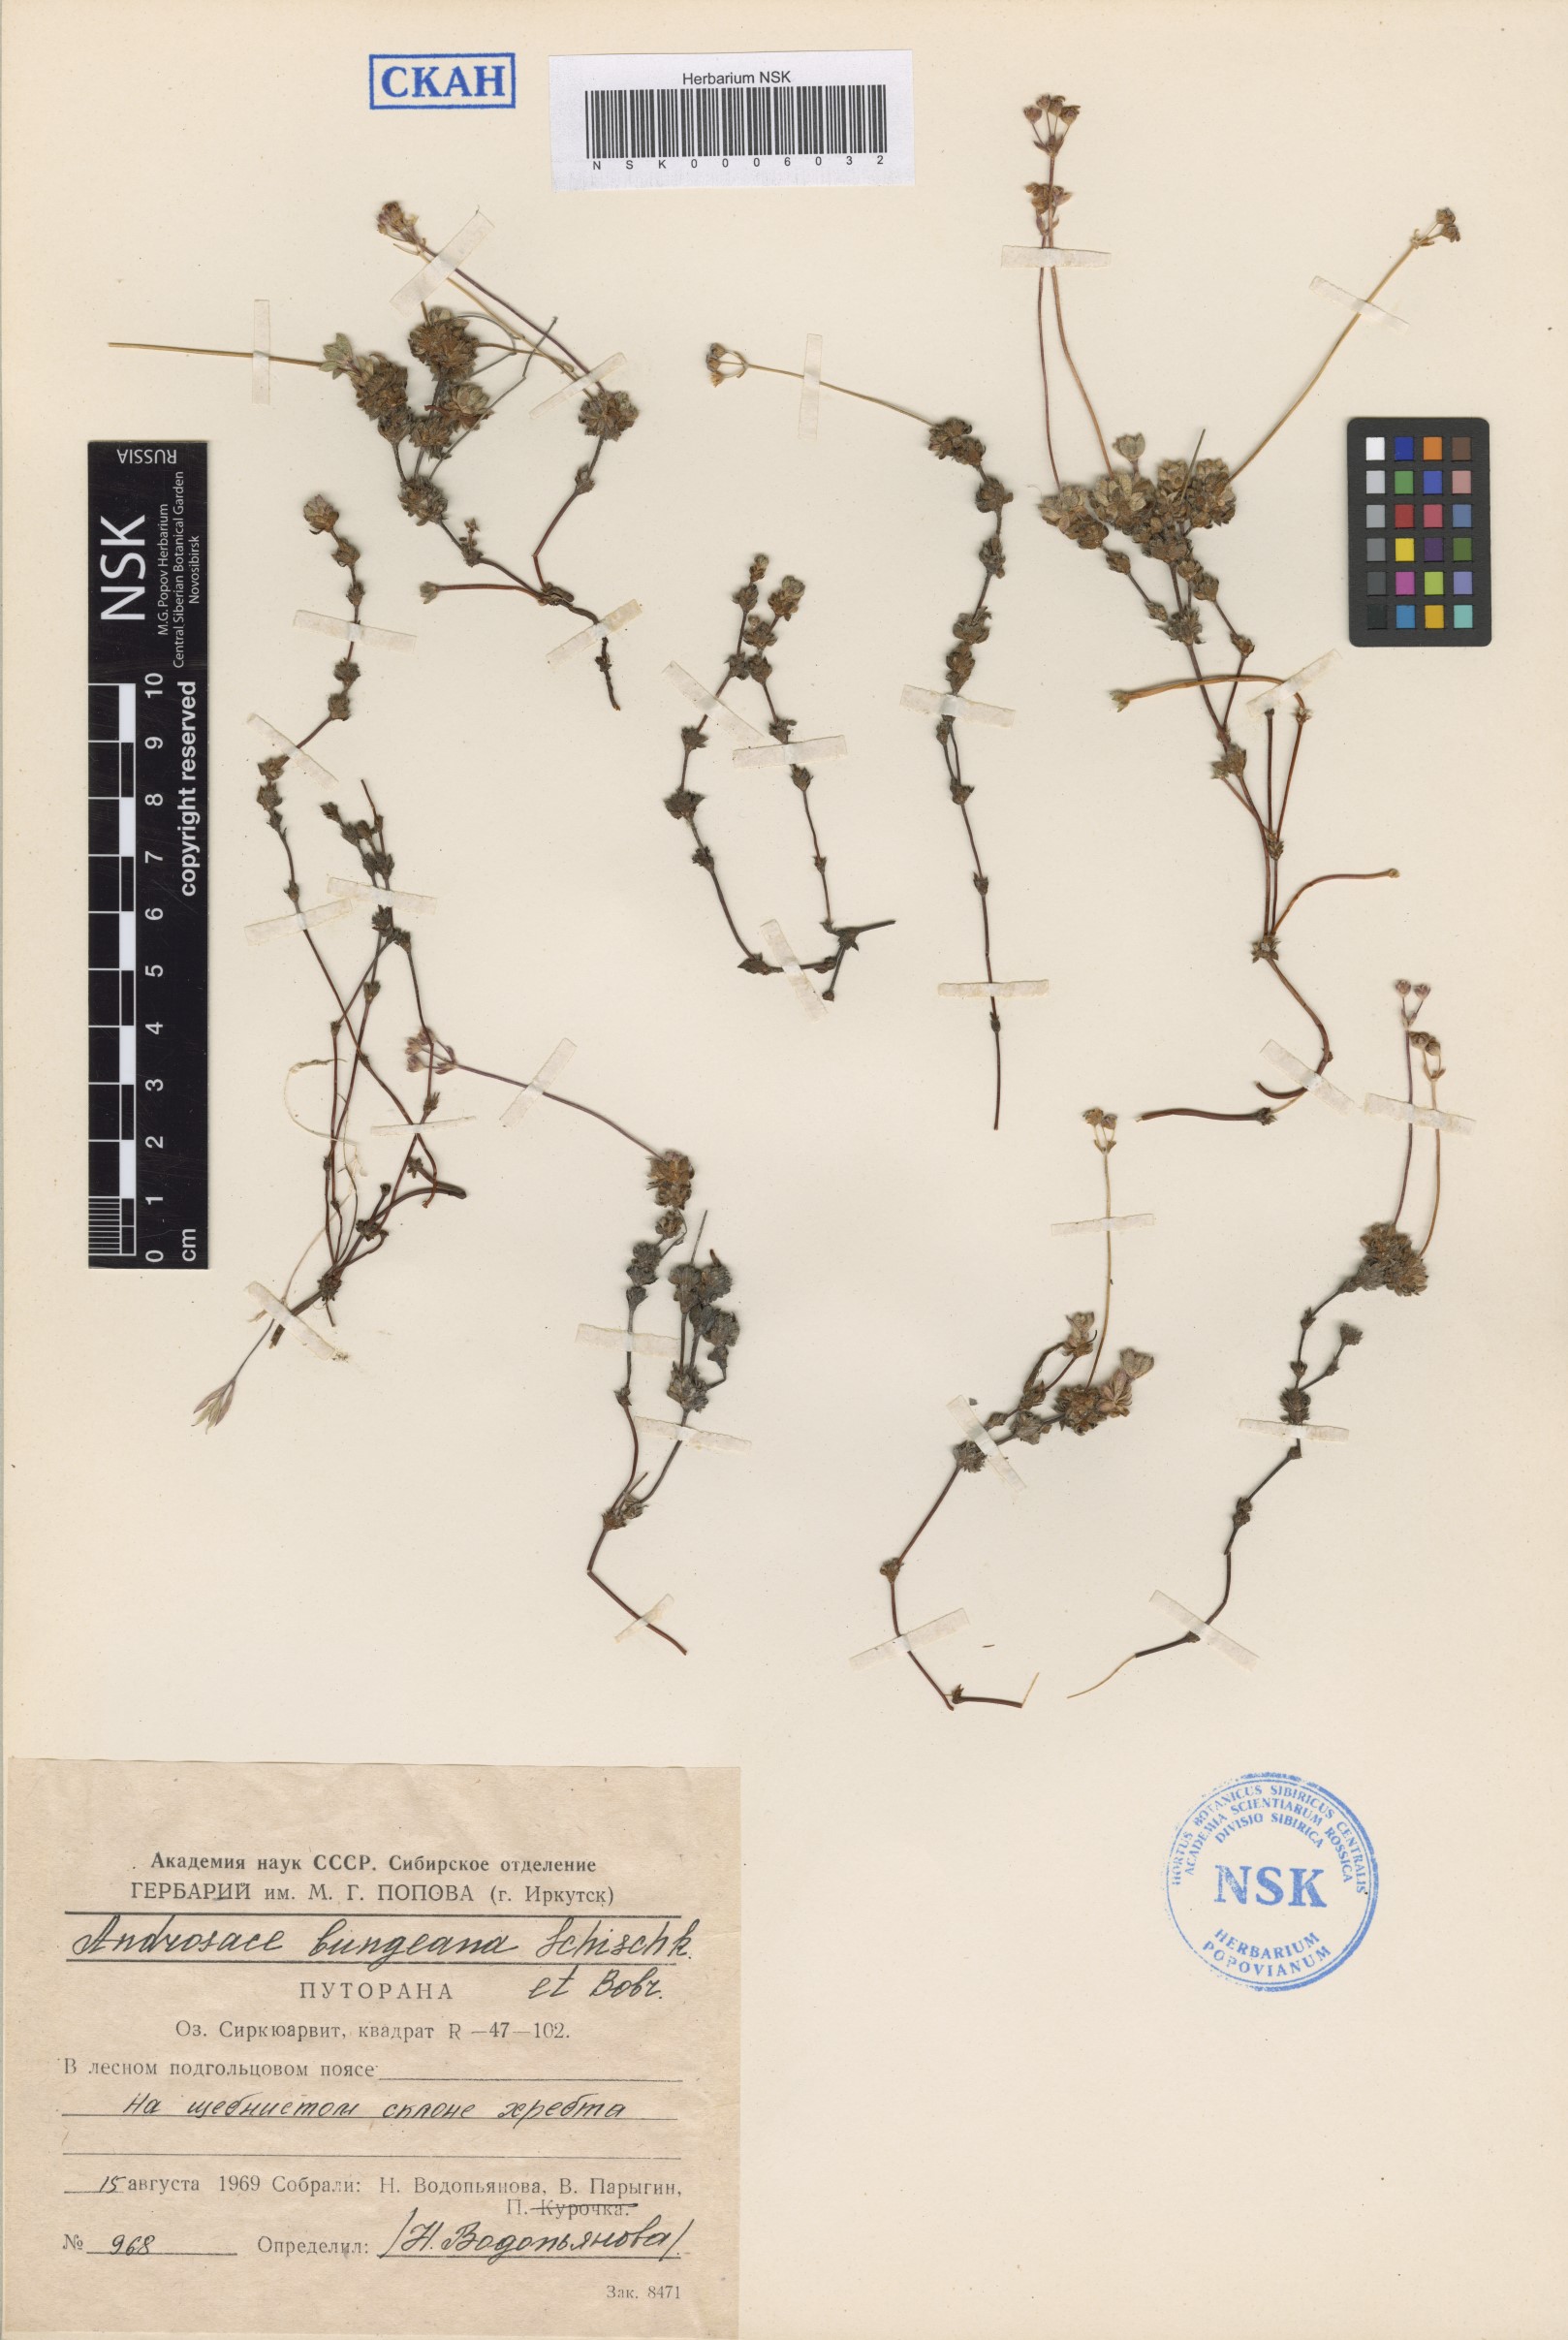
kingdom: Plantae
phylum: Tracheophyta
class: Magnoliopsida
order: Ericales
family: Primulaceae
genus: Androsace
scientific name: Androsace bungeana
